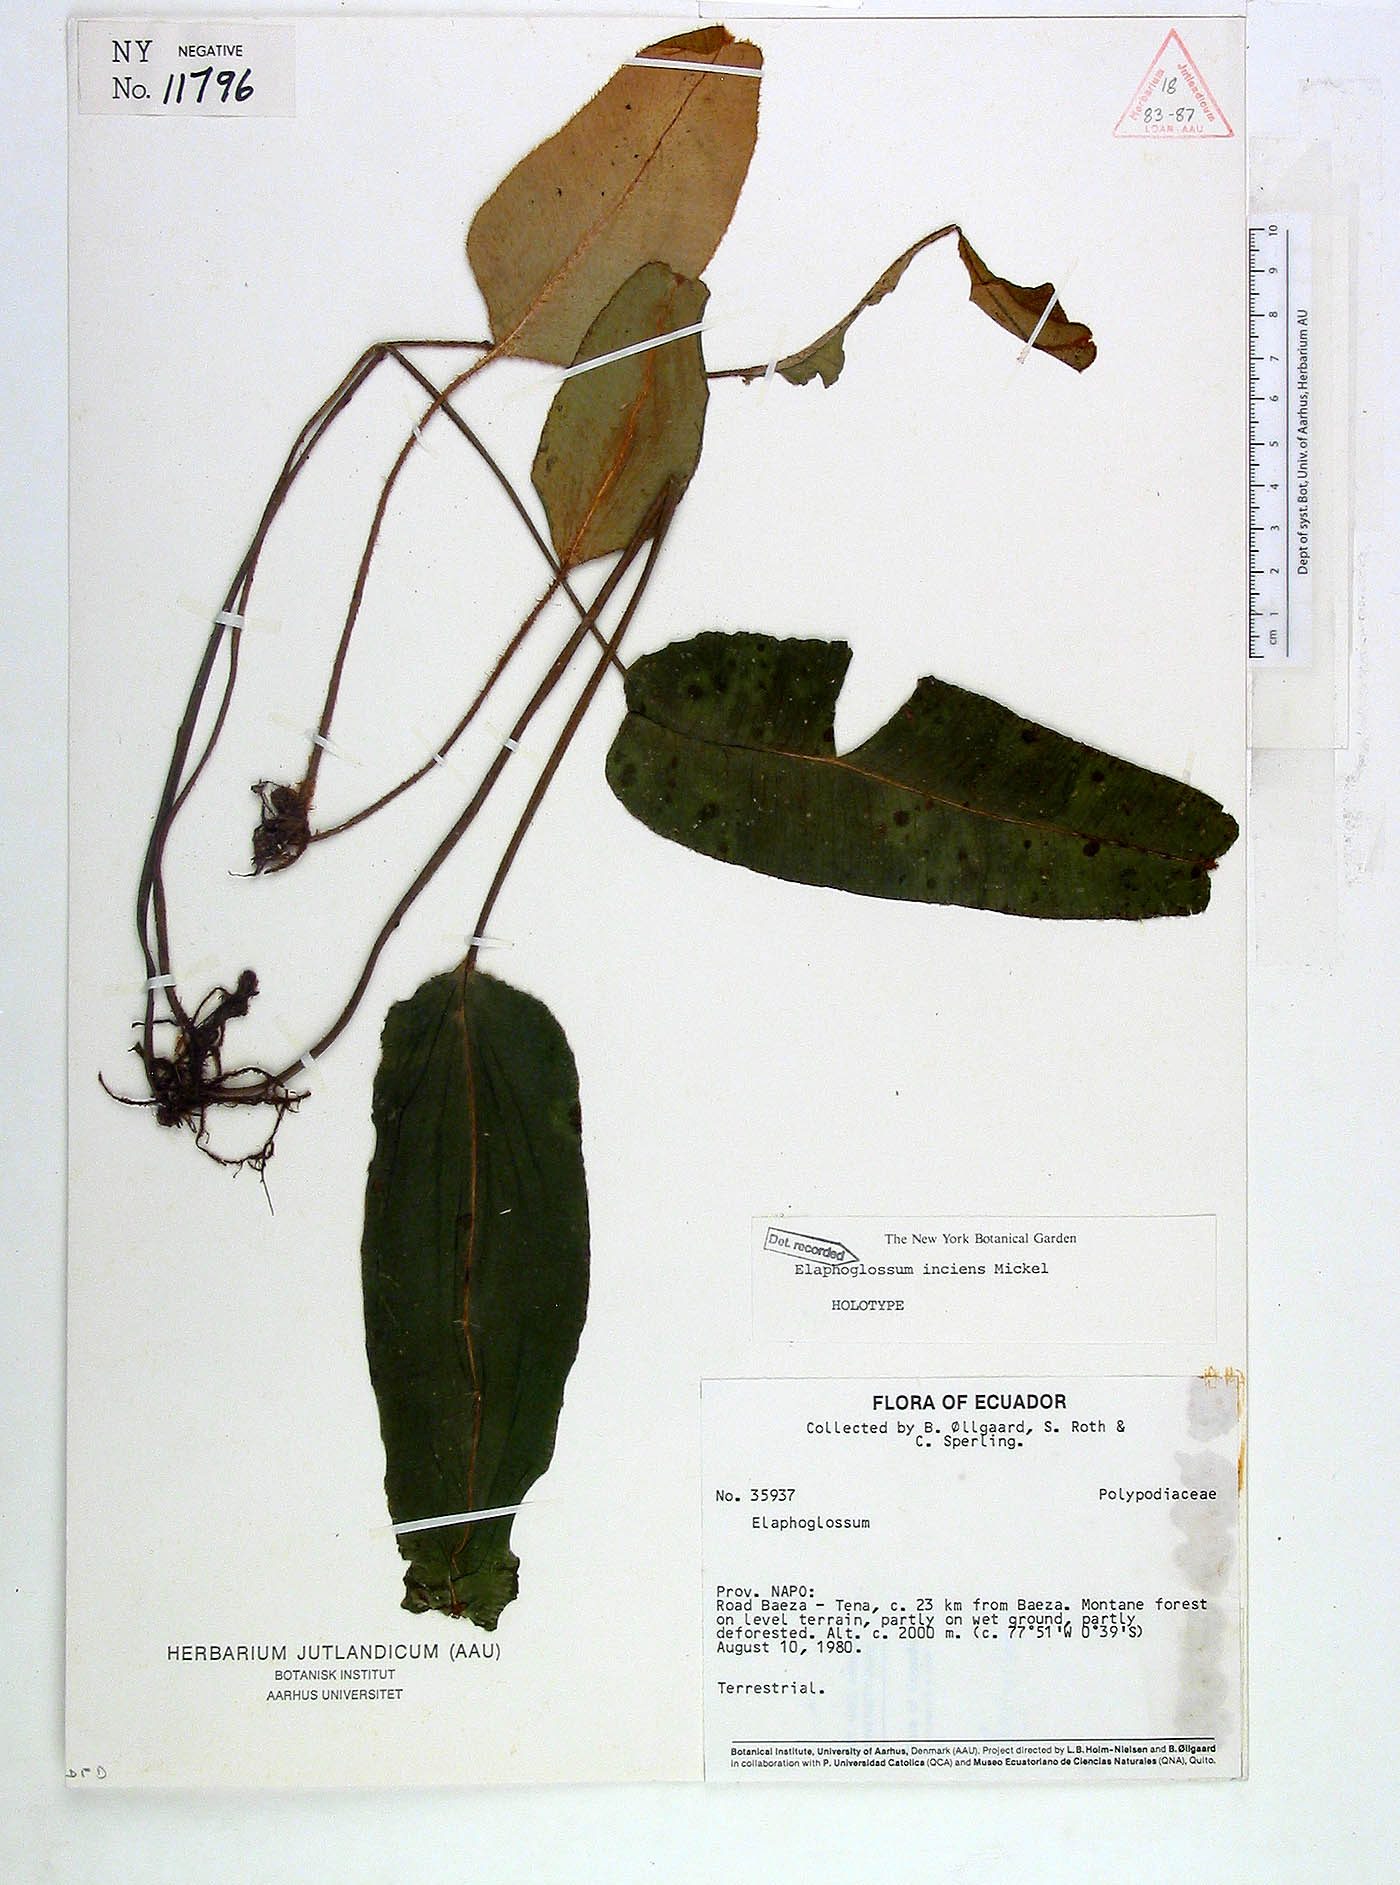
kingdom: Plantae
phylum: Tracheophyta
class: Polypodiopsida
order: Polypodiales
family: Dryopteridaceae
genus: Elaphoglossum
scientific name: Elaphoglossum inciens
